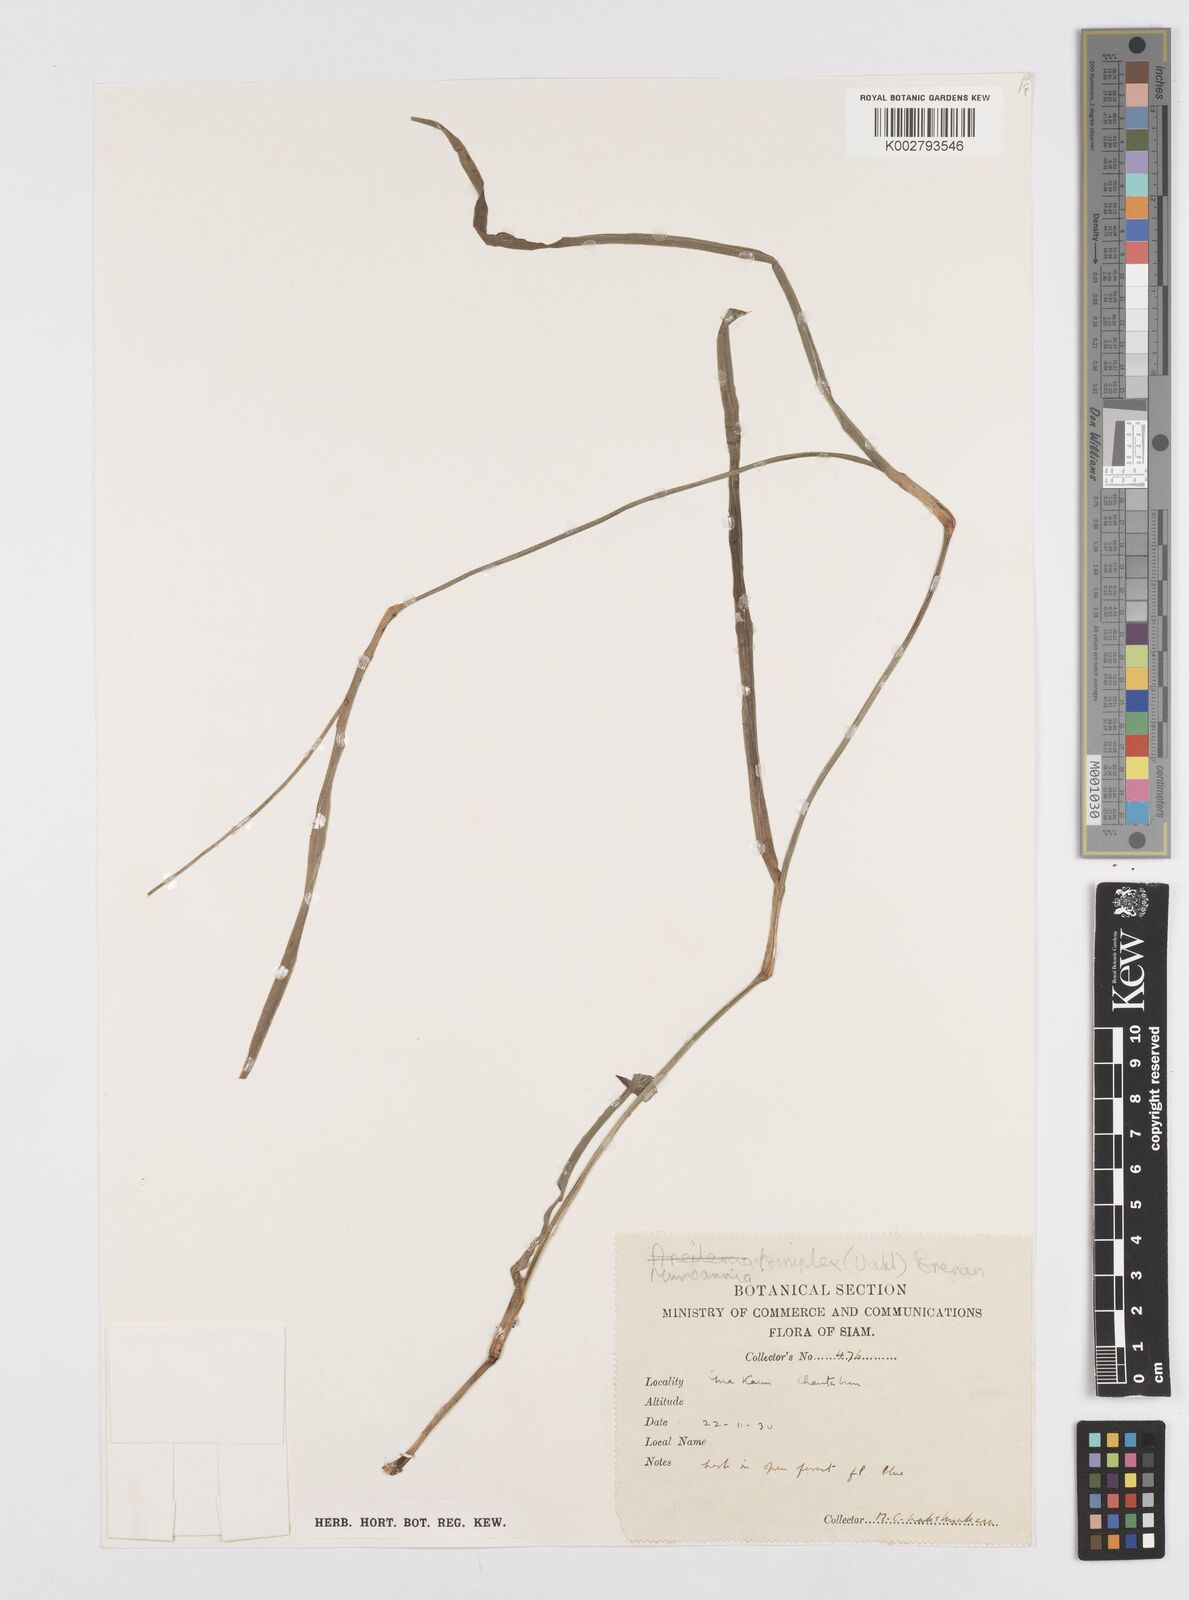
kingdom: Plantae
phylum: Tracheophyta
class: Liliopsida
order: Commelinales
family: Commelinaceae
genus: Murdannia
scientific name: Murdannia simplex
